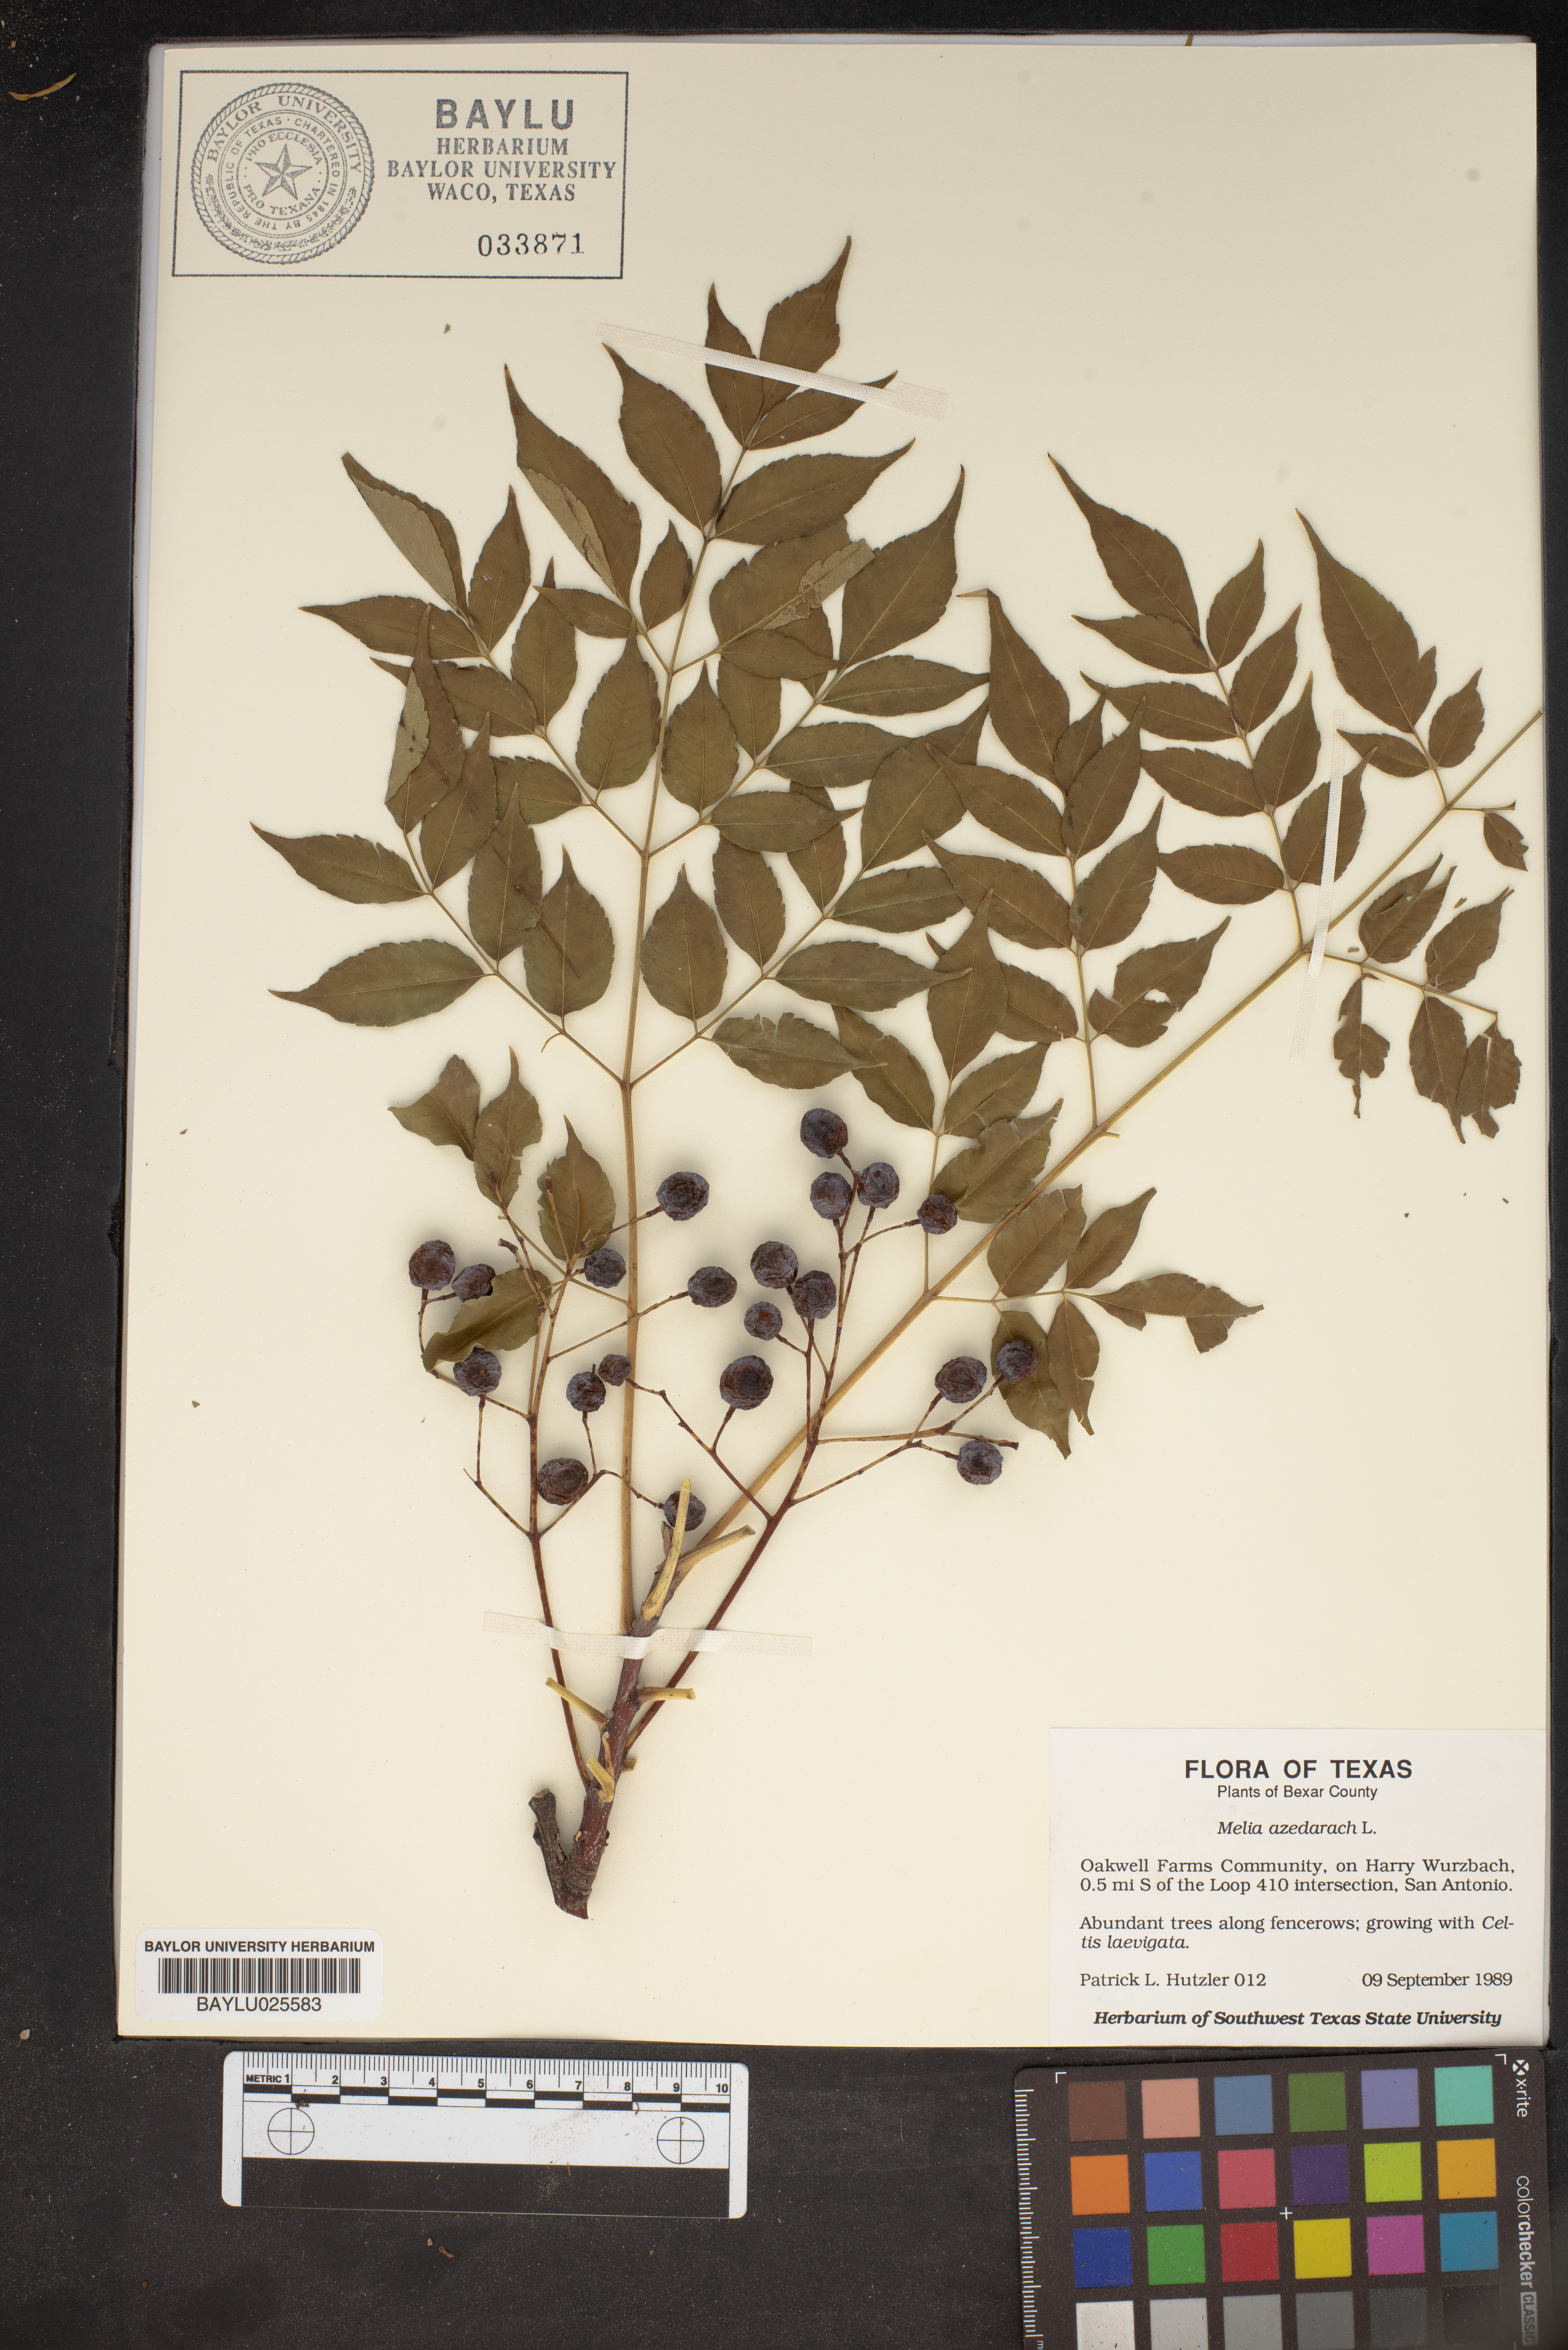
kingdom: Plantae
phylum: Tracheophyta
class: Magnoliopsida
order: Sapindales
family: Meliaceae
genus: Melia
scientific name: Melia azedarach
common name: Chinaberrytree
